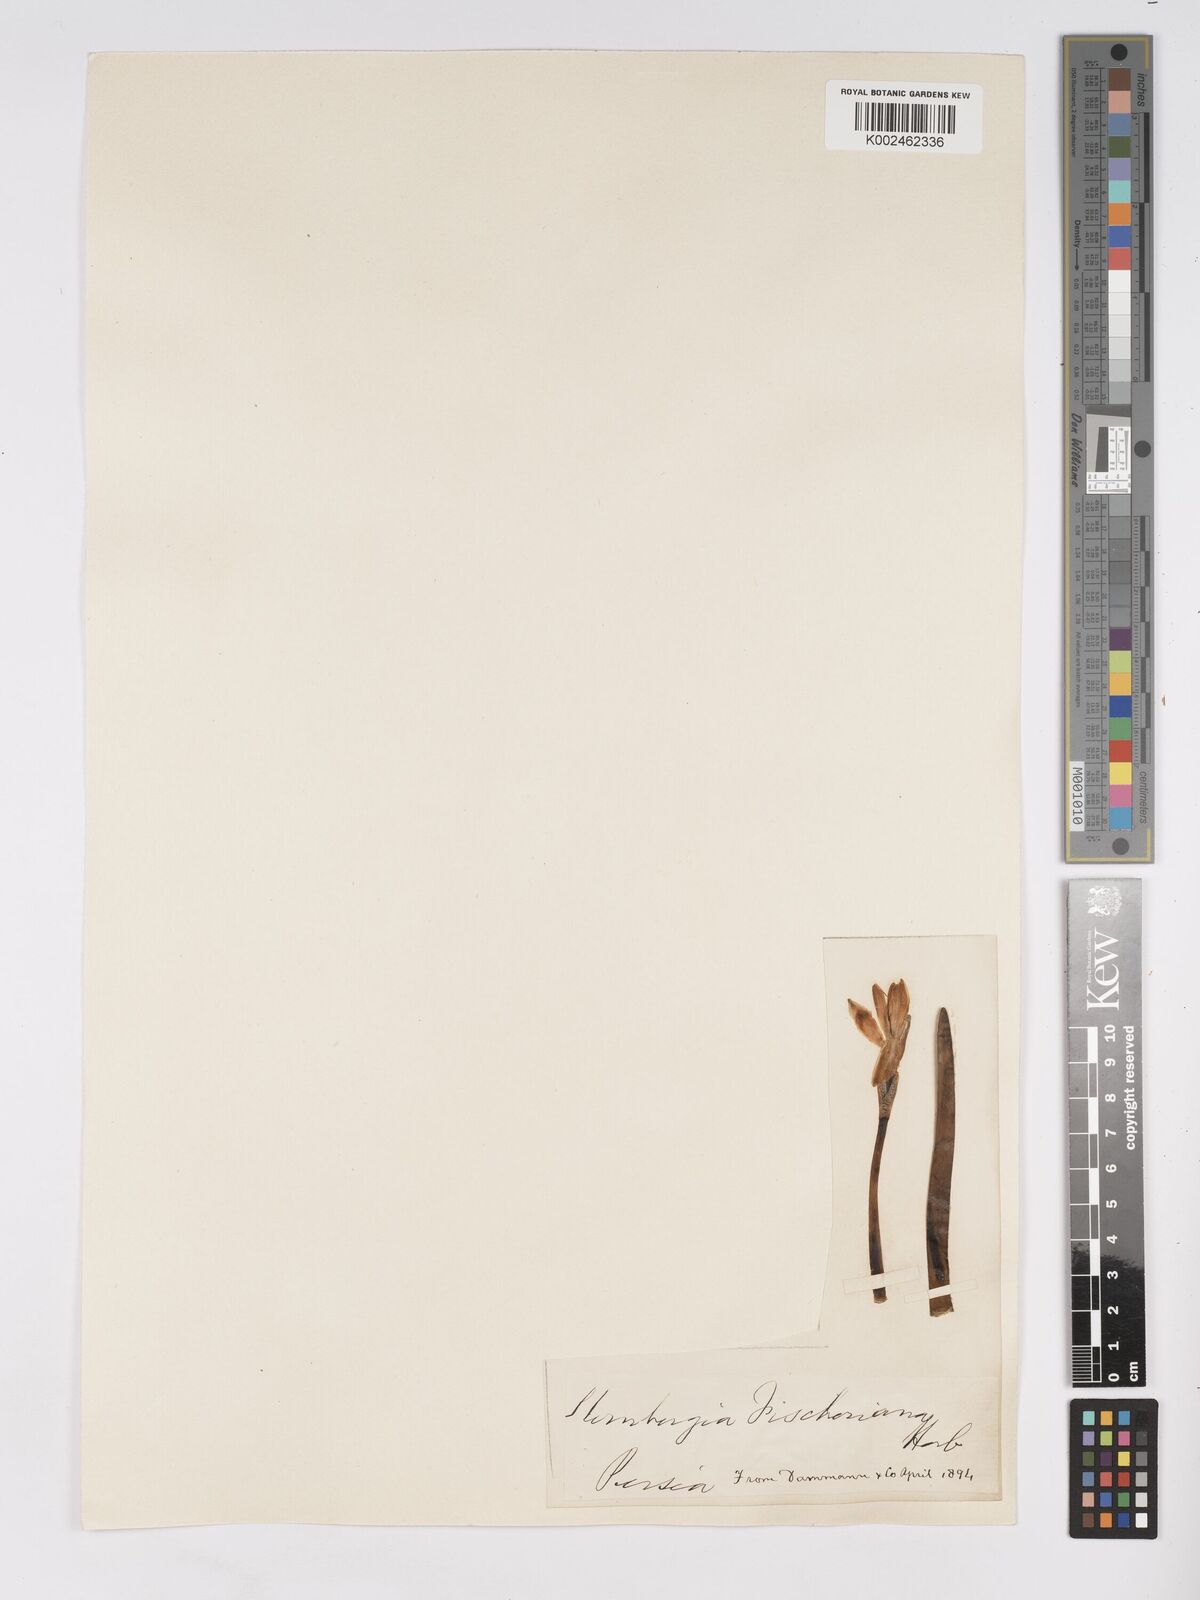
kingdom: Plantae
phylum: Tracheophyta
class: Liliopsida
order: Asparagales
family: Amaryllidaceae
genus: Sternbergia
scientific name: Sternbergia vernalis
